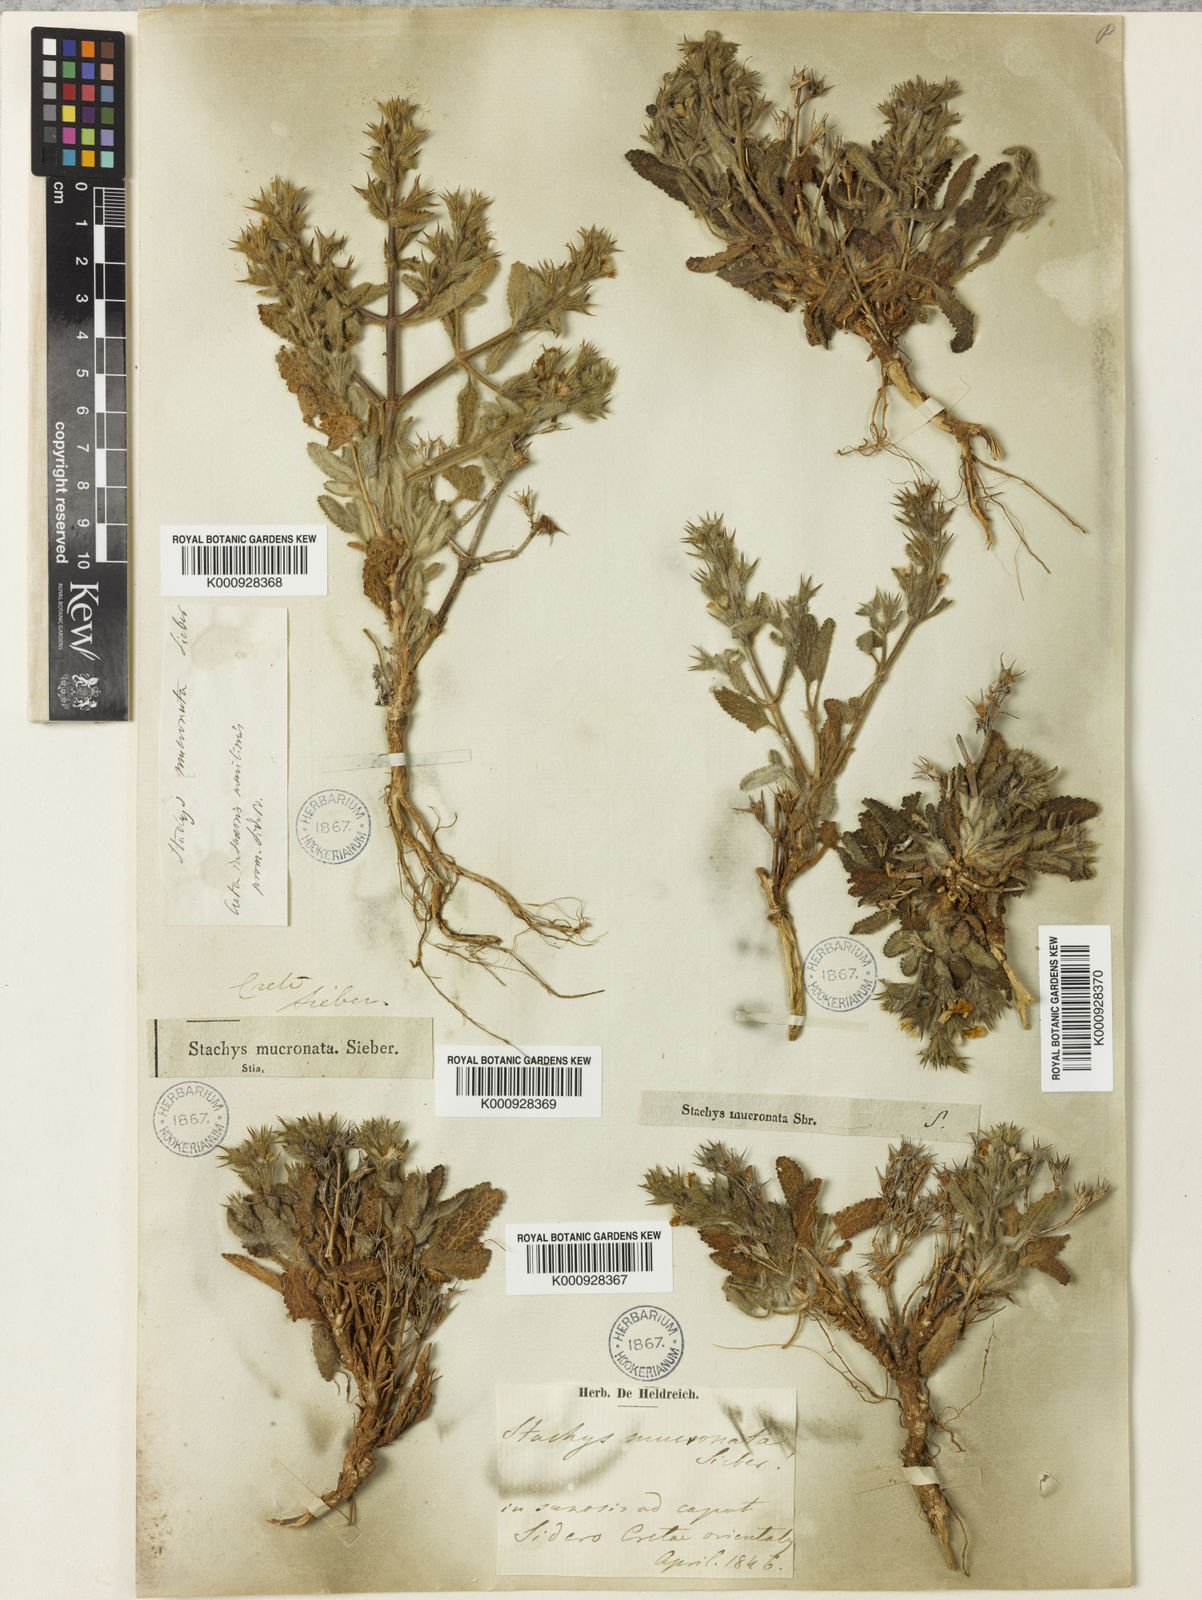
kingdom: Plantae
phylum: Tracheophyta
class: Magnoliopsida
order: Lamiales
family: Lamiaceae
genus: Stachys
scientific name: Stachys mucronata
